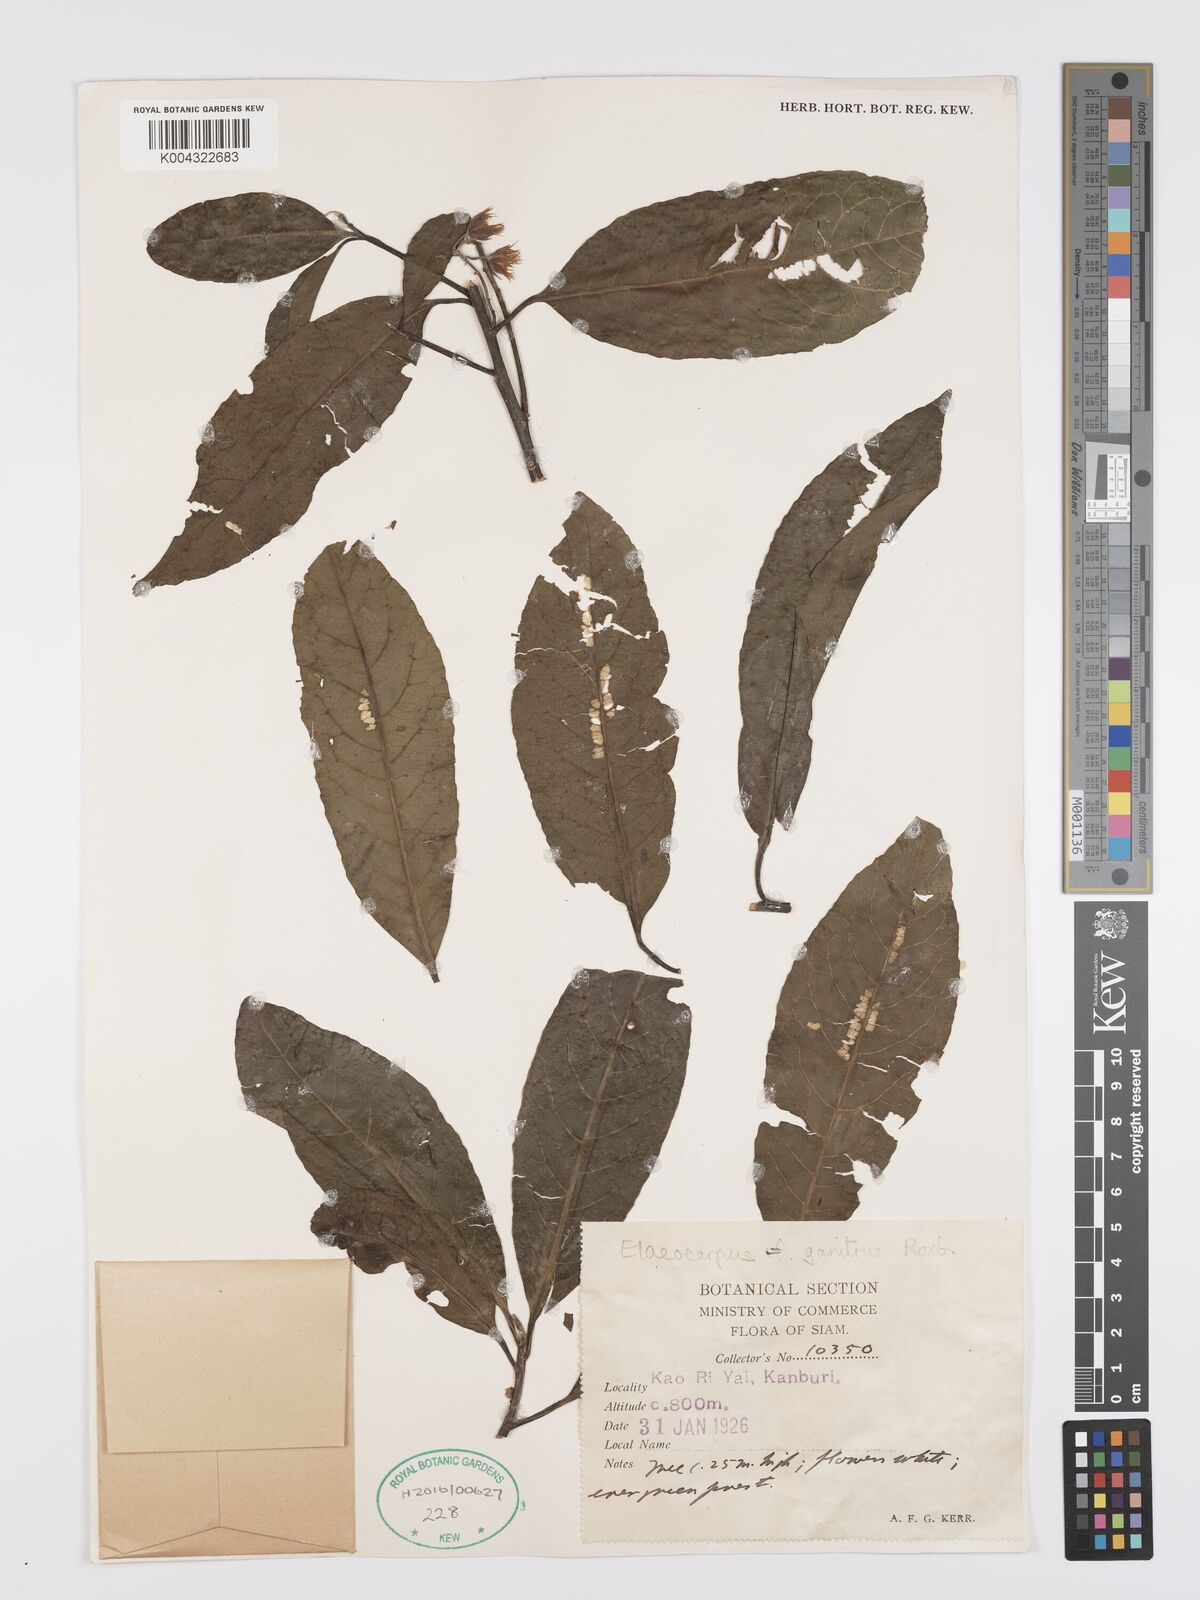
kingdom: Plantae
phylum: Tracheophyta
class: Magnoliopsida
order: Oxalidales
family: Elaeocarpaceae
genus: Elaeocarpus
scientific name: Elaeocarpus
